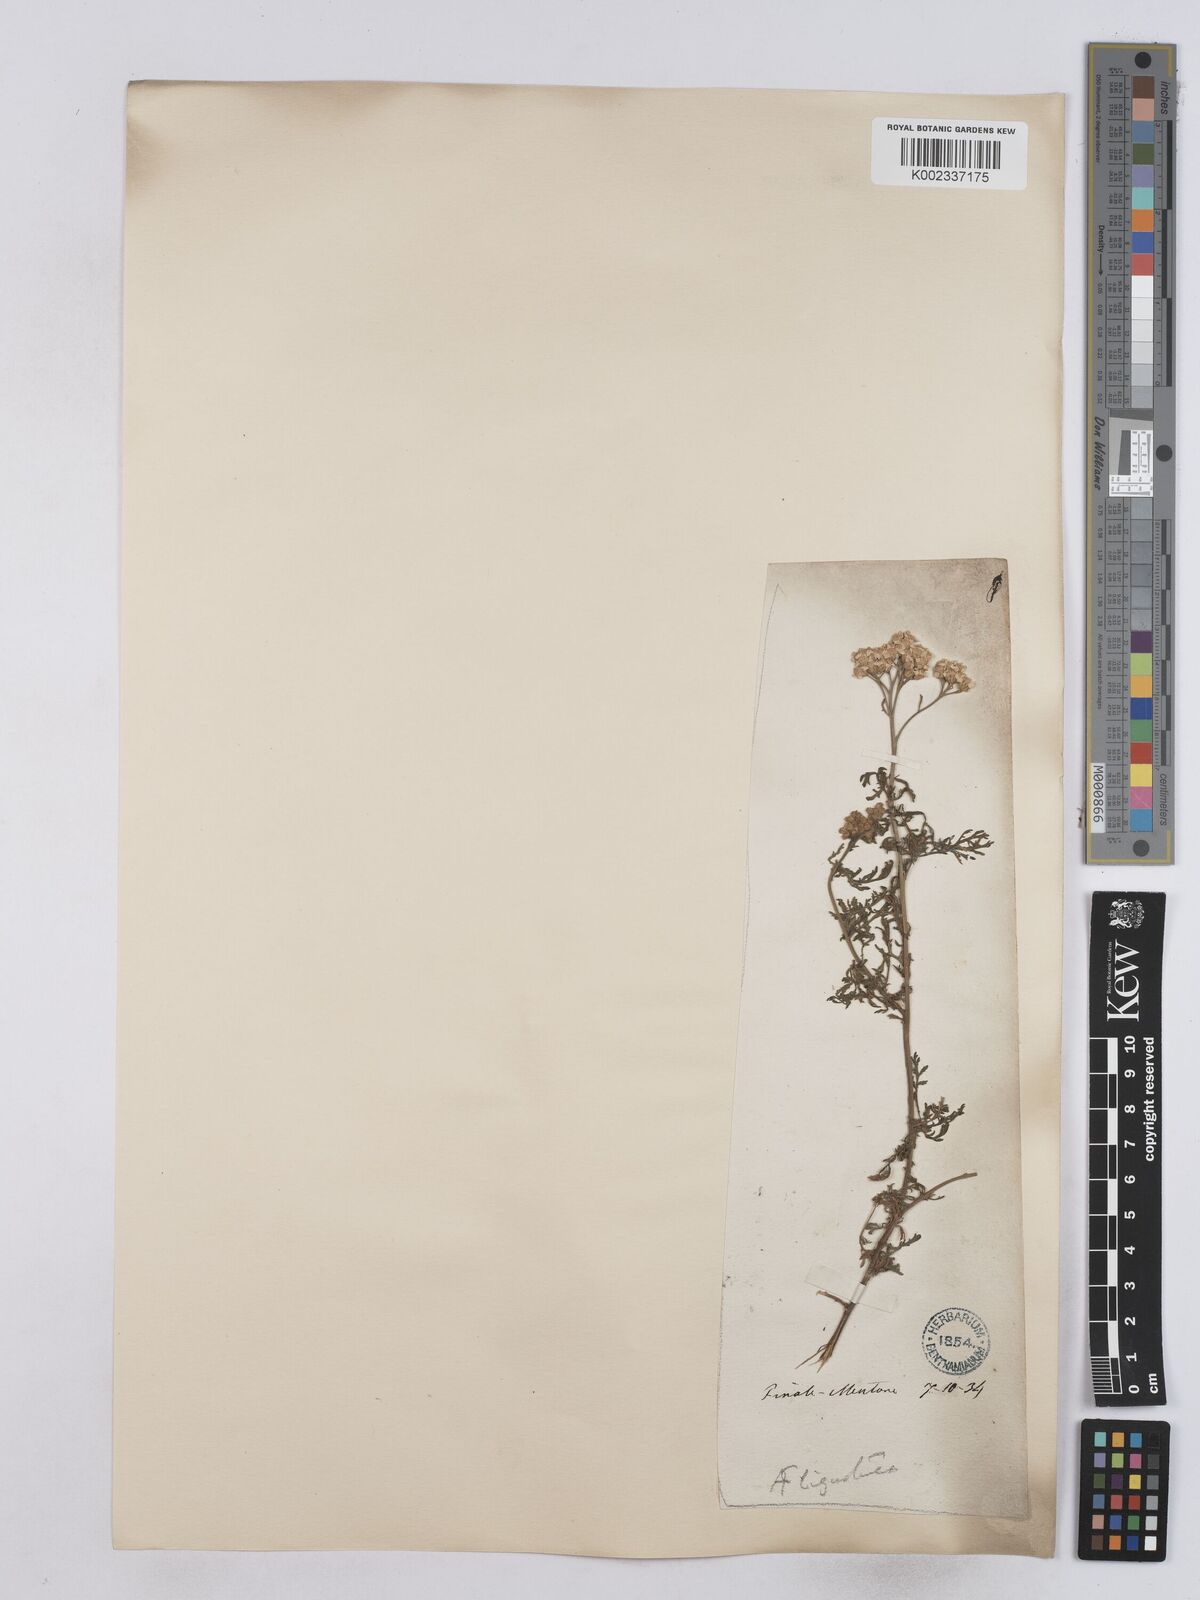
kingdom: Plantae
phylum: Tracheophyta
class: Magnoliopsida
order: Asterales
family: Asteraceae
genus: Achillea
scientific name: Achillea ligustica
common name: Southern yarrow
